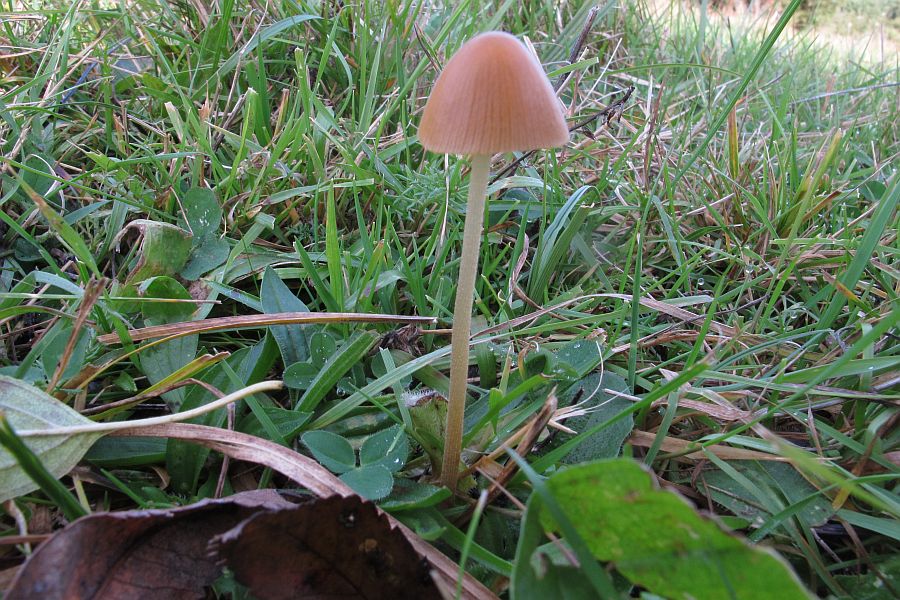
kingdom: Fungi
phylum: Basidiomycota
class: Agaricomycetes
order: Agaricales
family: Hymenogastraceae
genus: Galerina
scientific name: Galerina vittiformis
